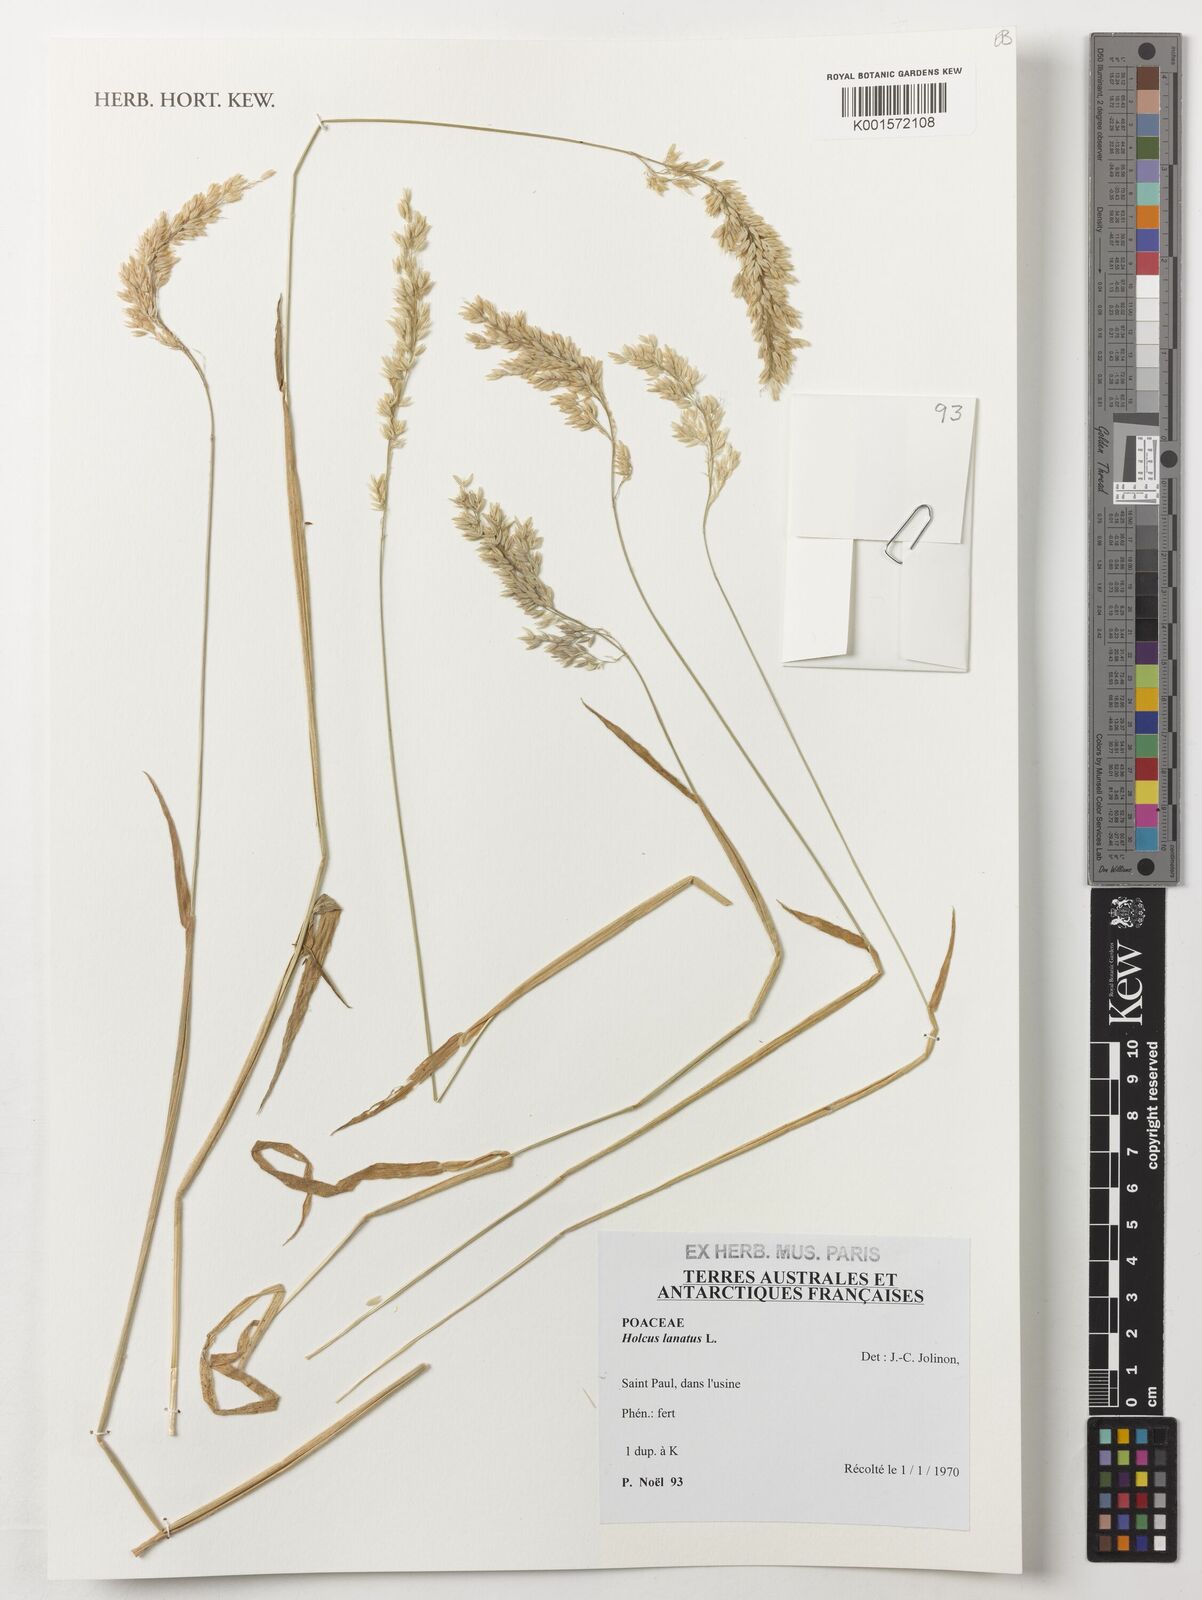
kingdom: Plantae
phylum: Tracheophyta
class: Liliopsida
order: Poales
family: Poaceae
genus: Holcus
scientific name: Holcus lanatus
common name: Yorkshire-fog
